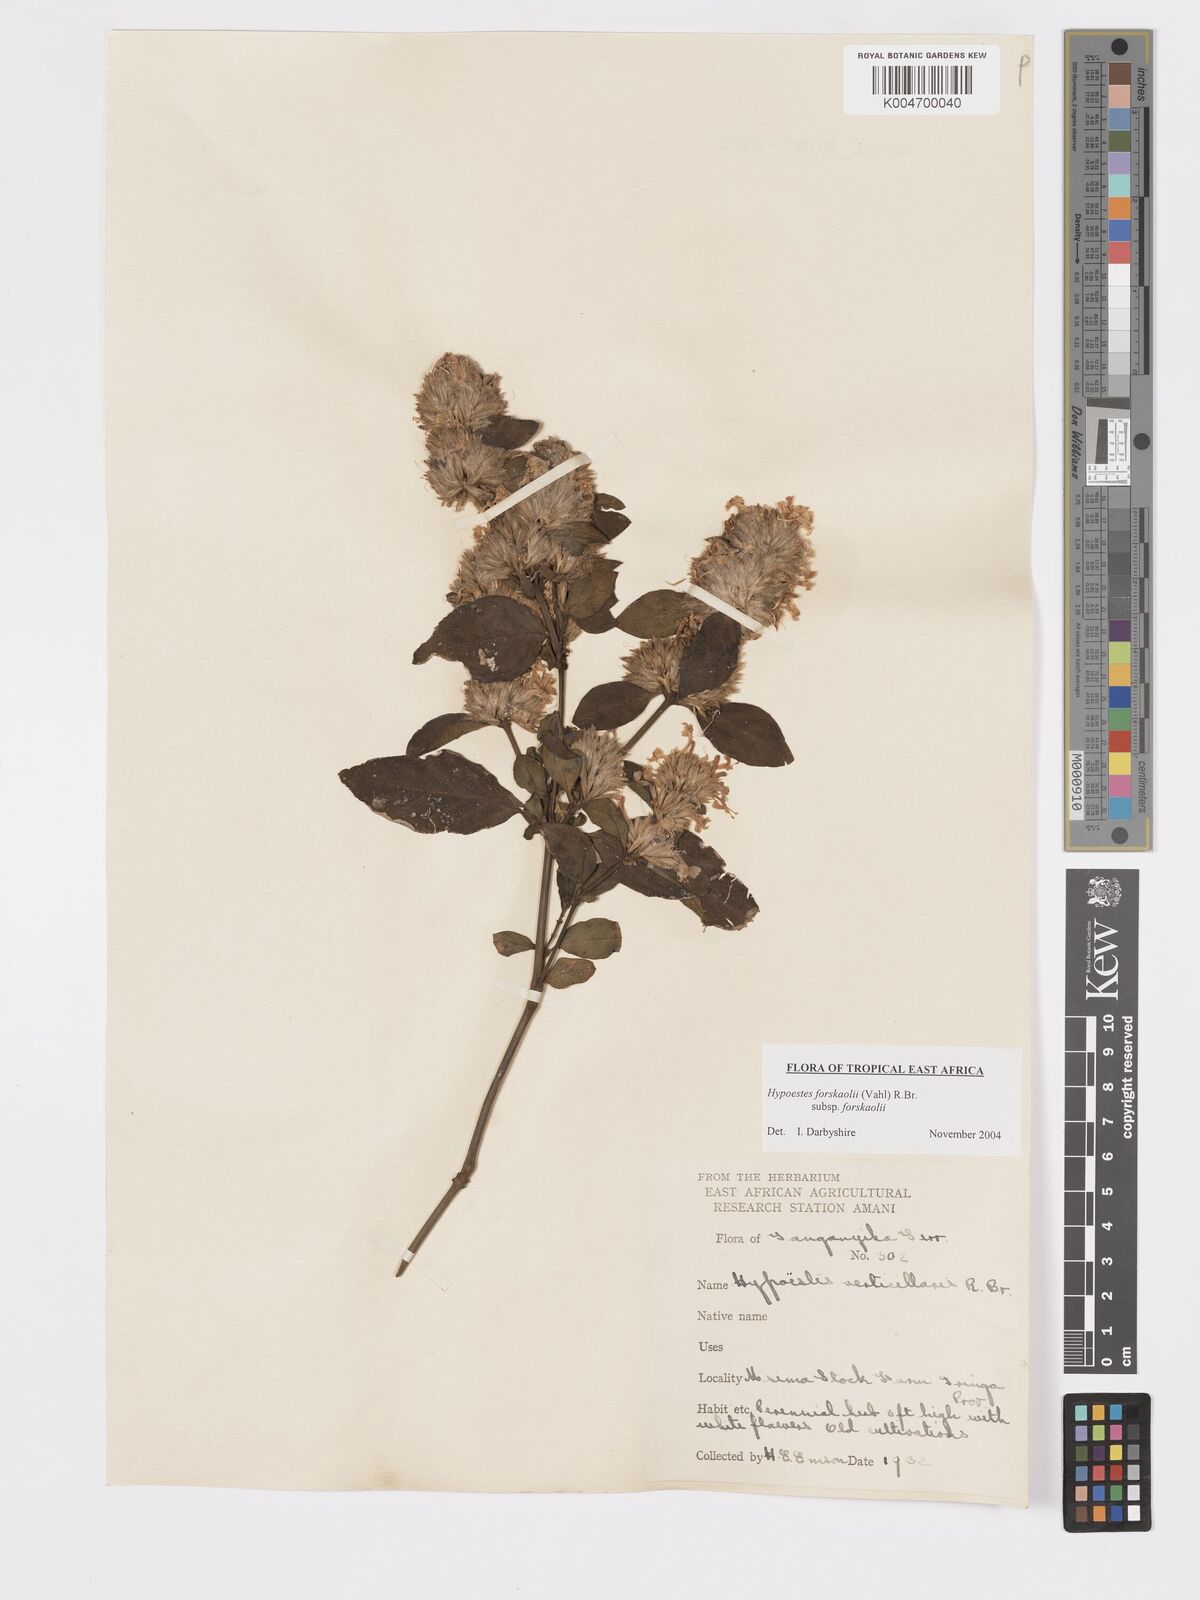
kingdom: Plantae
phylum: Tracheophyta
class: Magnoliopsida
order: Lamiales
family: Acanthaceae
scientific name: Acanthaceae
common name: Acanthaceae
